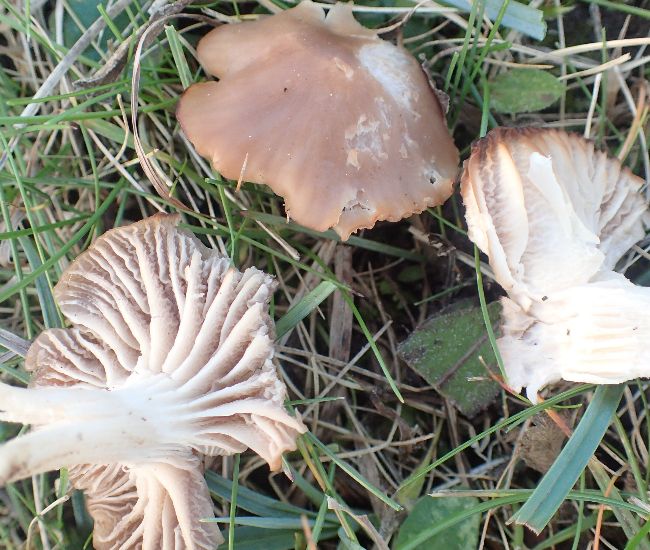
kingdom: Fungi
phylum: Basidiomycota
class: Agaricomycetes
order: Agaricales
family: Hygrophoraceae
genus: Cuphophyllus
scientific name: Cuphophyllus colemannianus
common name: rødbrun vokshat
